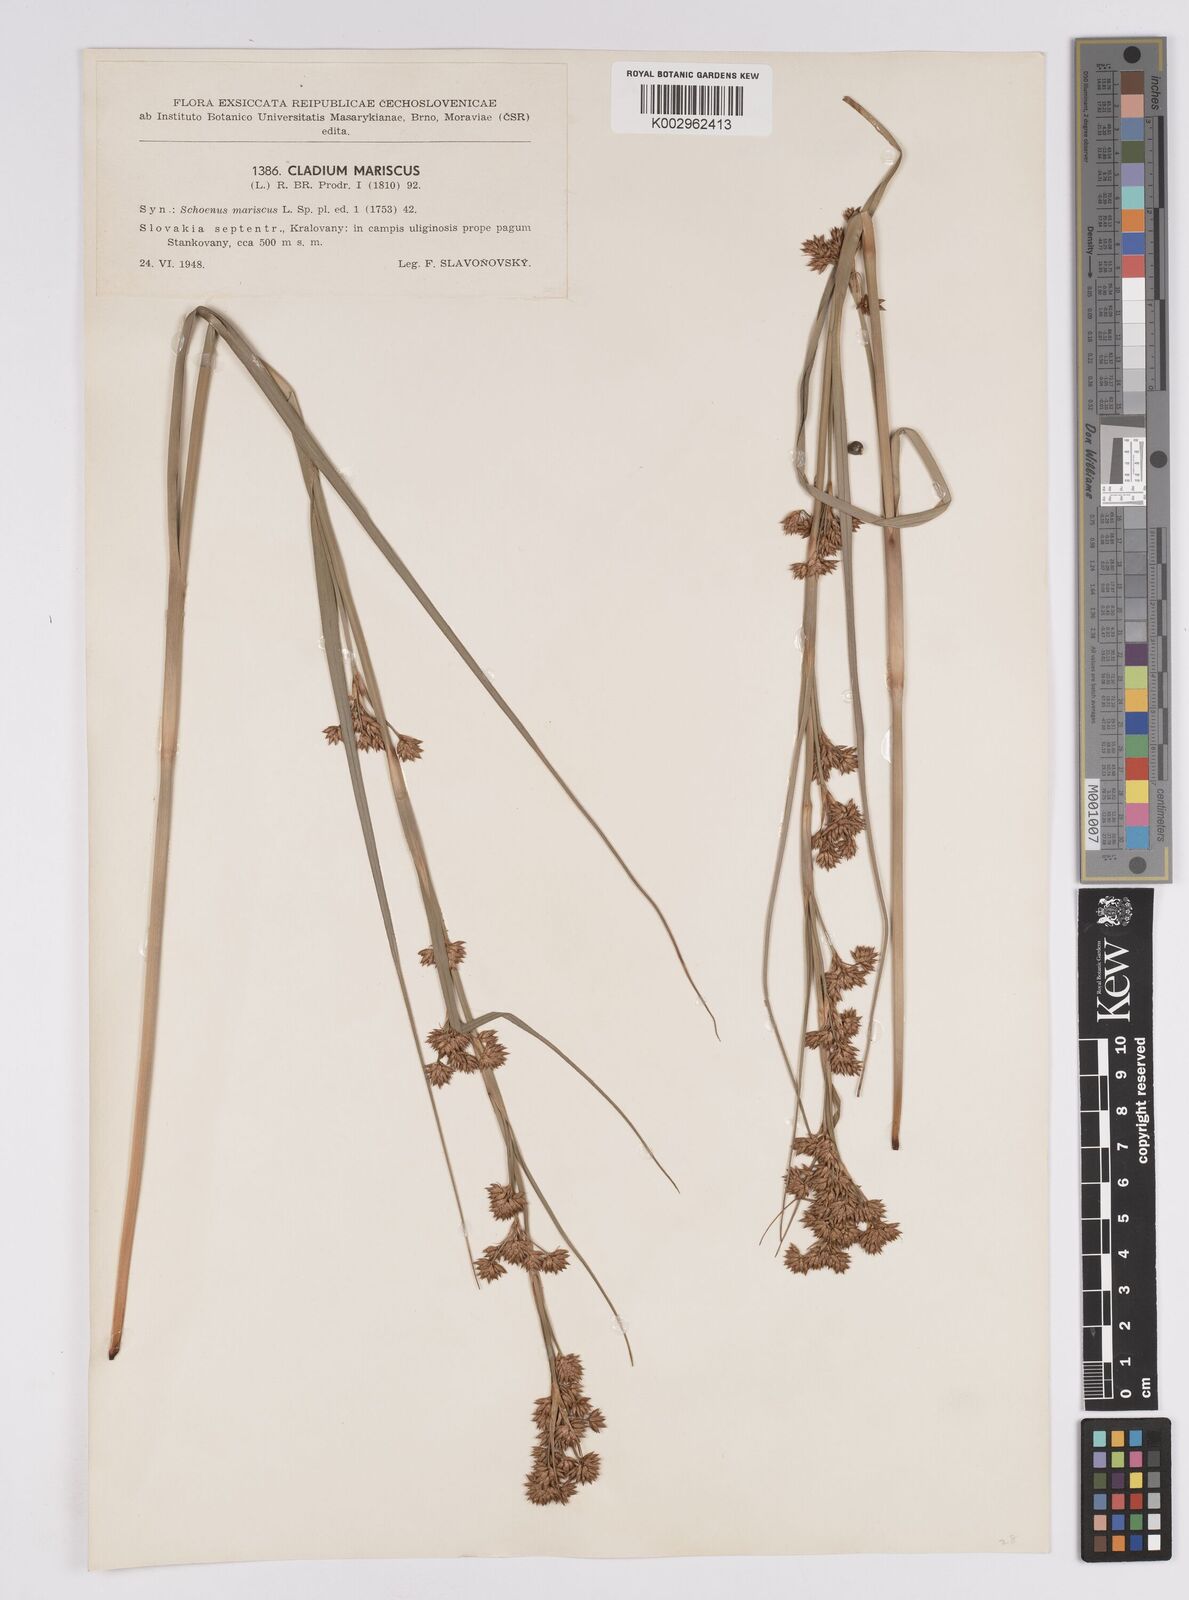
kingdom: Plantae
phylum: Tracheophyta
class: Liliopsida
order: Poales
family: Cyperaceae
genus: Cladium
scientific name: Cladium mariscus
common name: Great fen-sedge
